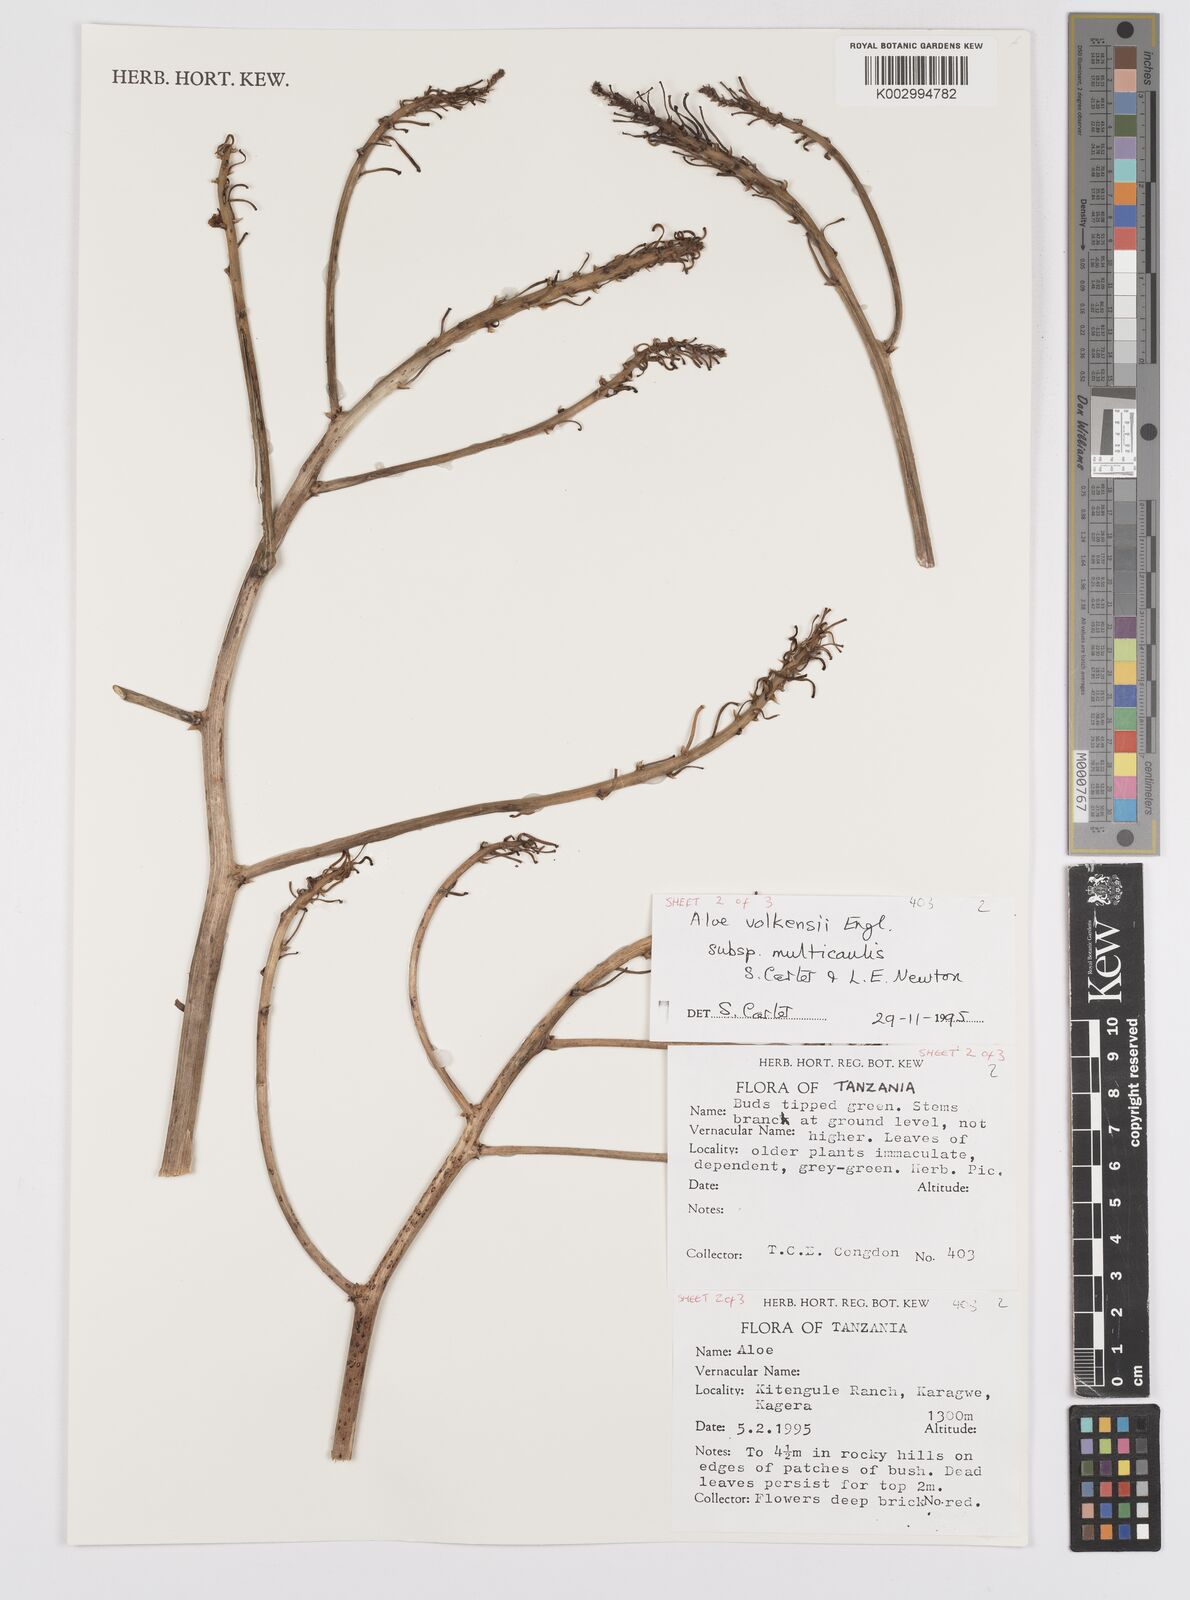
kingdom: Plantae
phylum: Tracheophyta
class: Liliopsida
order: Asparagales
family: Asphodelaceae
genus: Aloe
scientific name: Aloe volkensii
